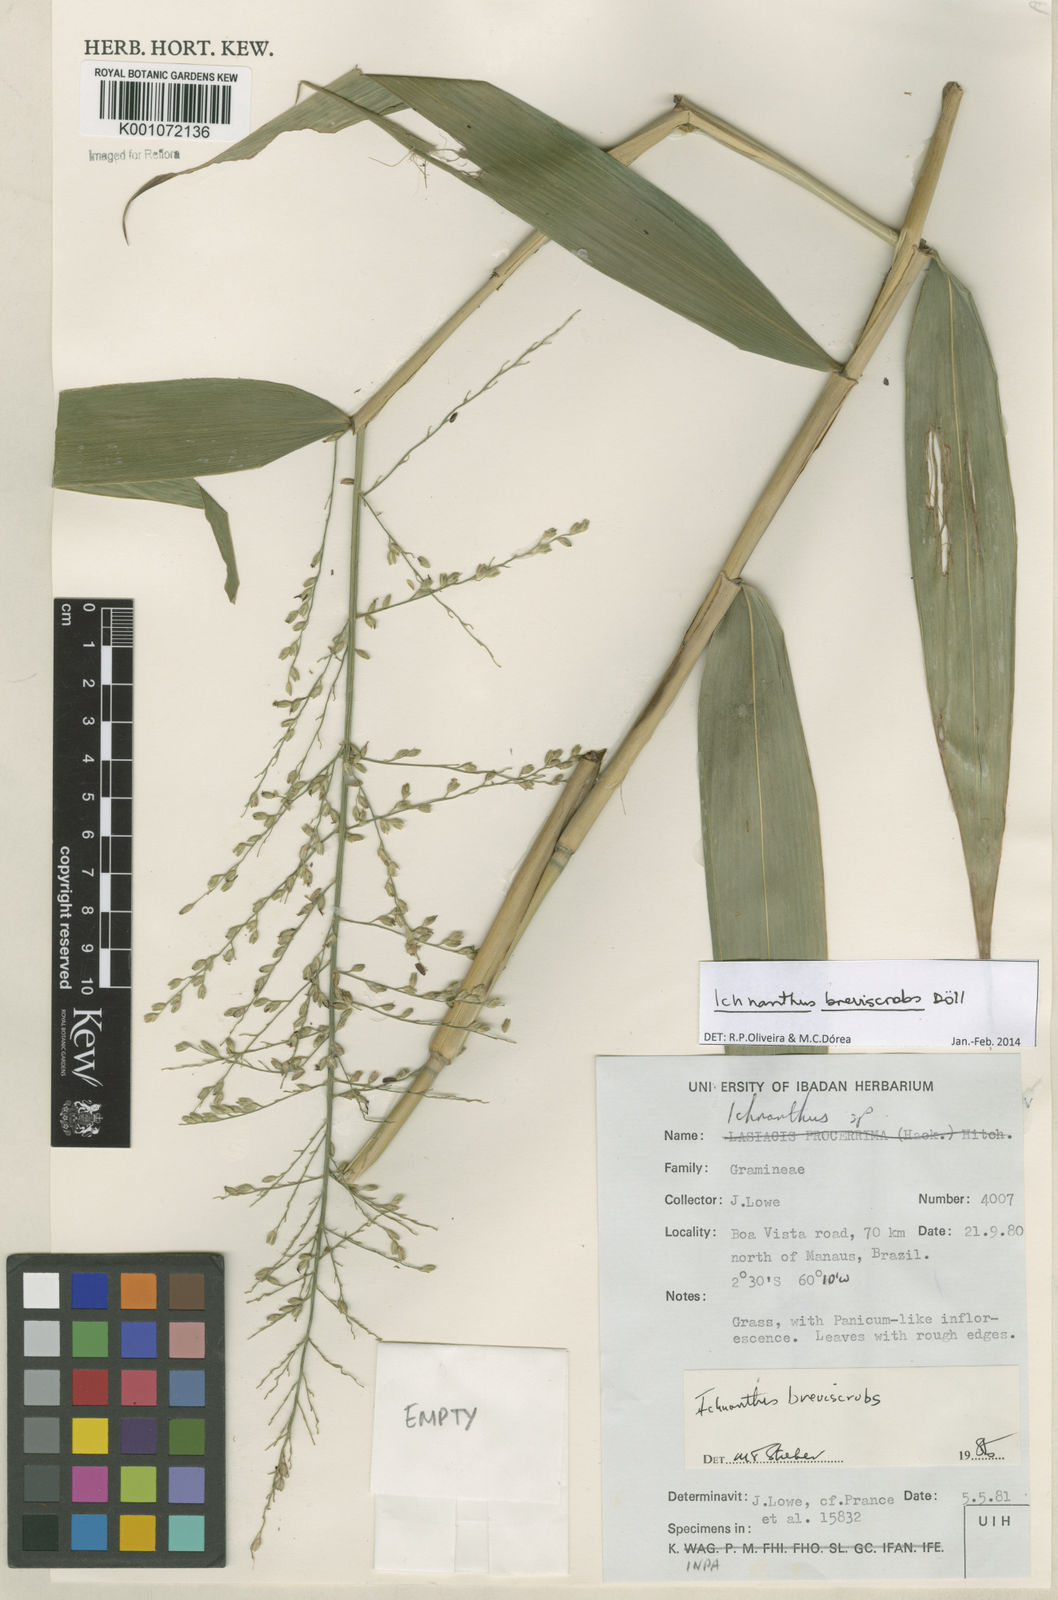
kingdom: Plantae
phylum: Tracheophyta
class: Liliopsida
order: Poales
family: Poaceae
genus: Ichnanthus
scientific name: Ichnanthus
